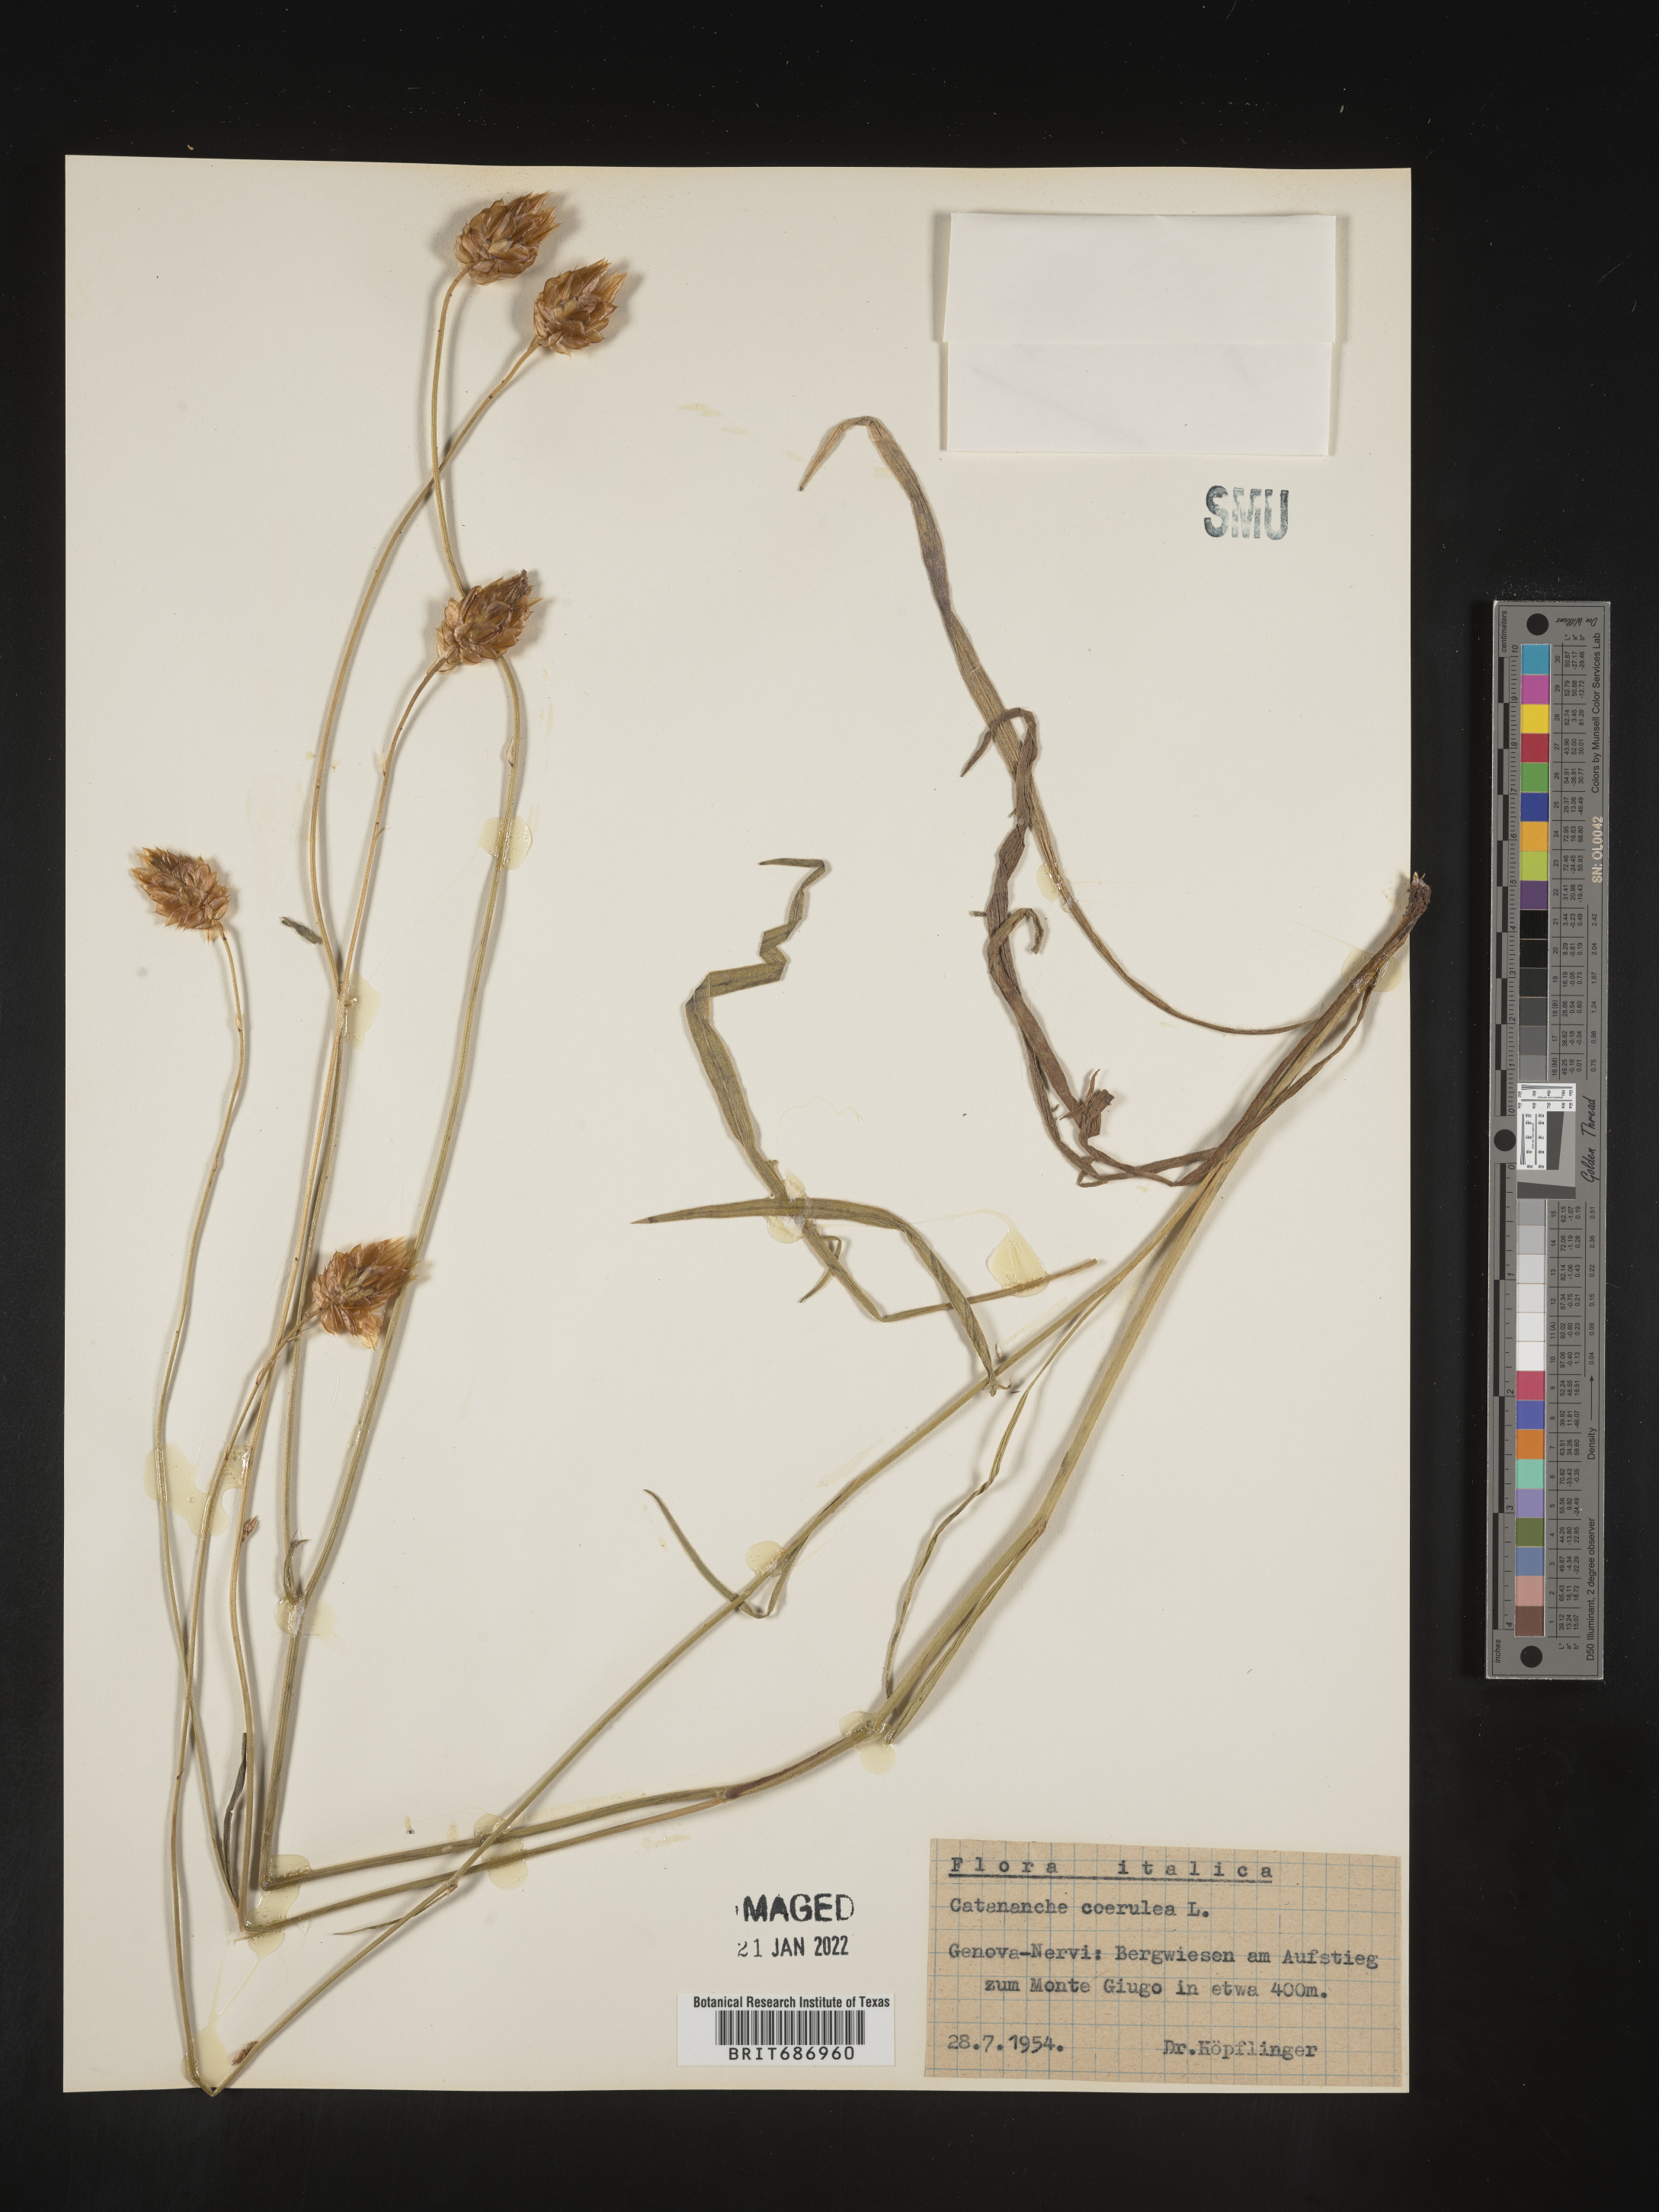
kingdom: Plantae
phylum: Tracheophyta
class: Magnoliopsida
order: Asterales
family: Asteraceae
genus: Catananche
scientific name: Catananche
